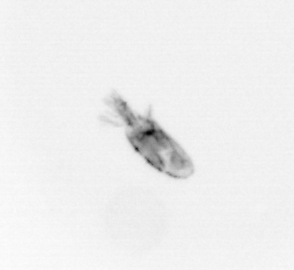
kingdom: Animalia
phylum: Arthropoda
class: Copepoda
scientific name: Copepoda
